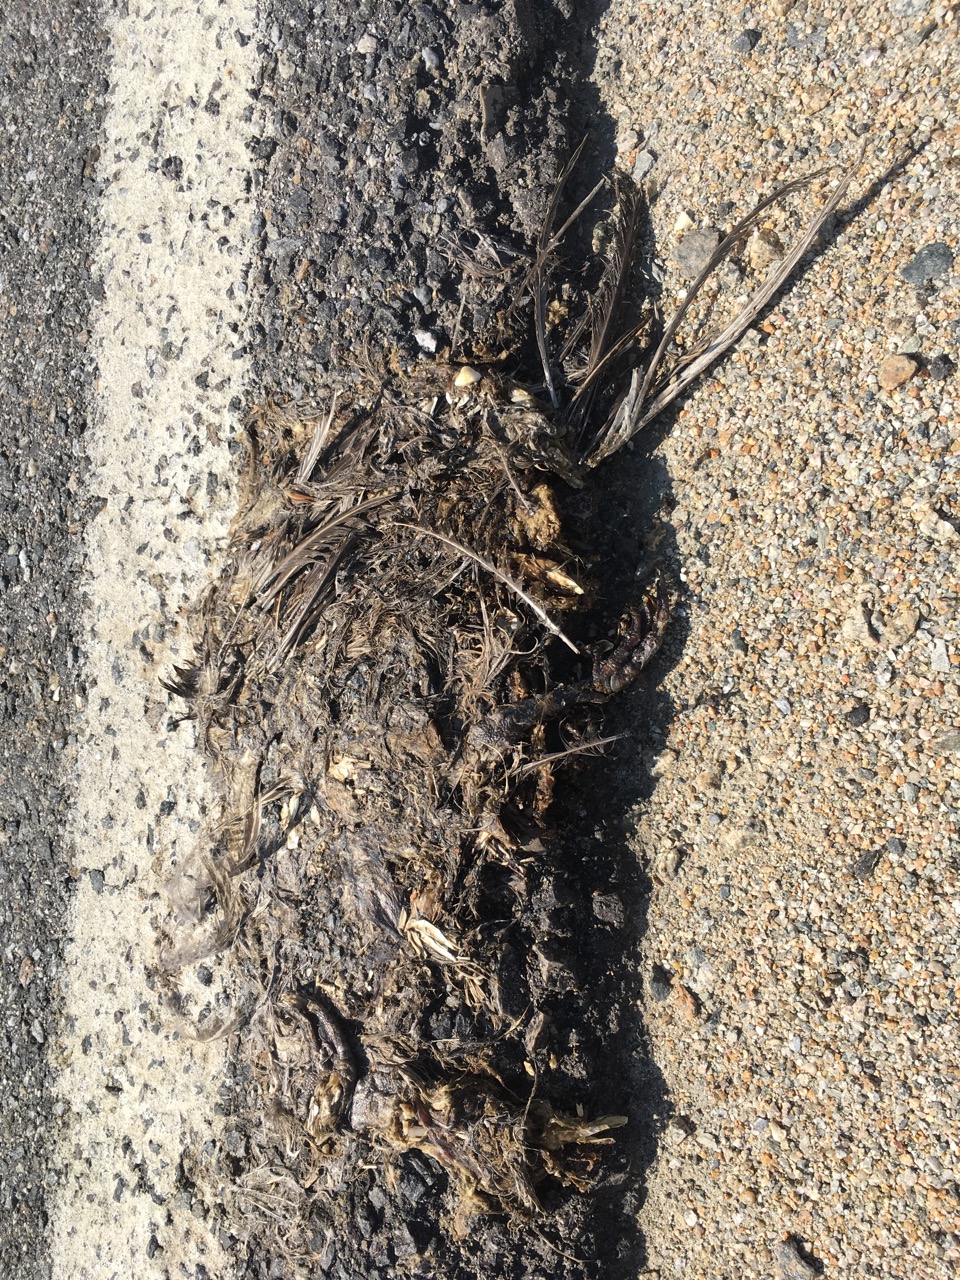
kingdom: Animalia
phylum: Chordata
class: Aves
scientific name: Aves
